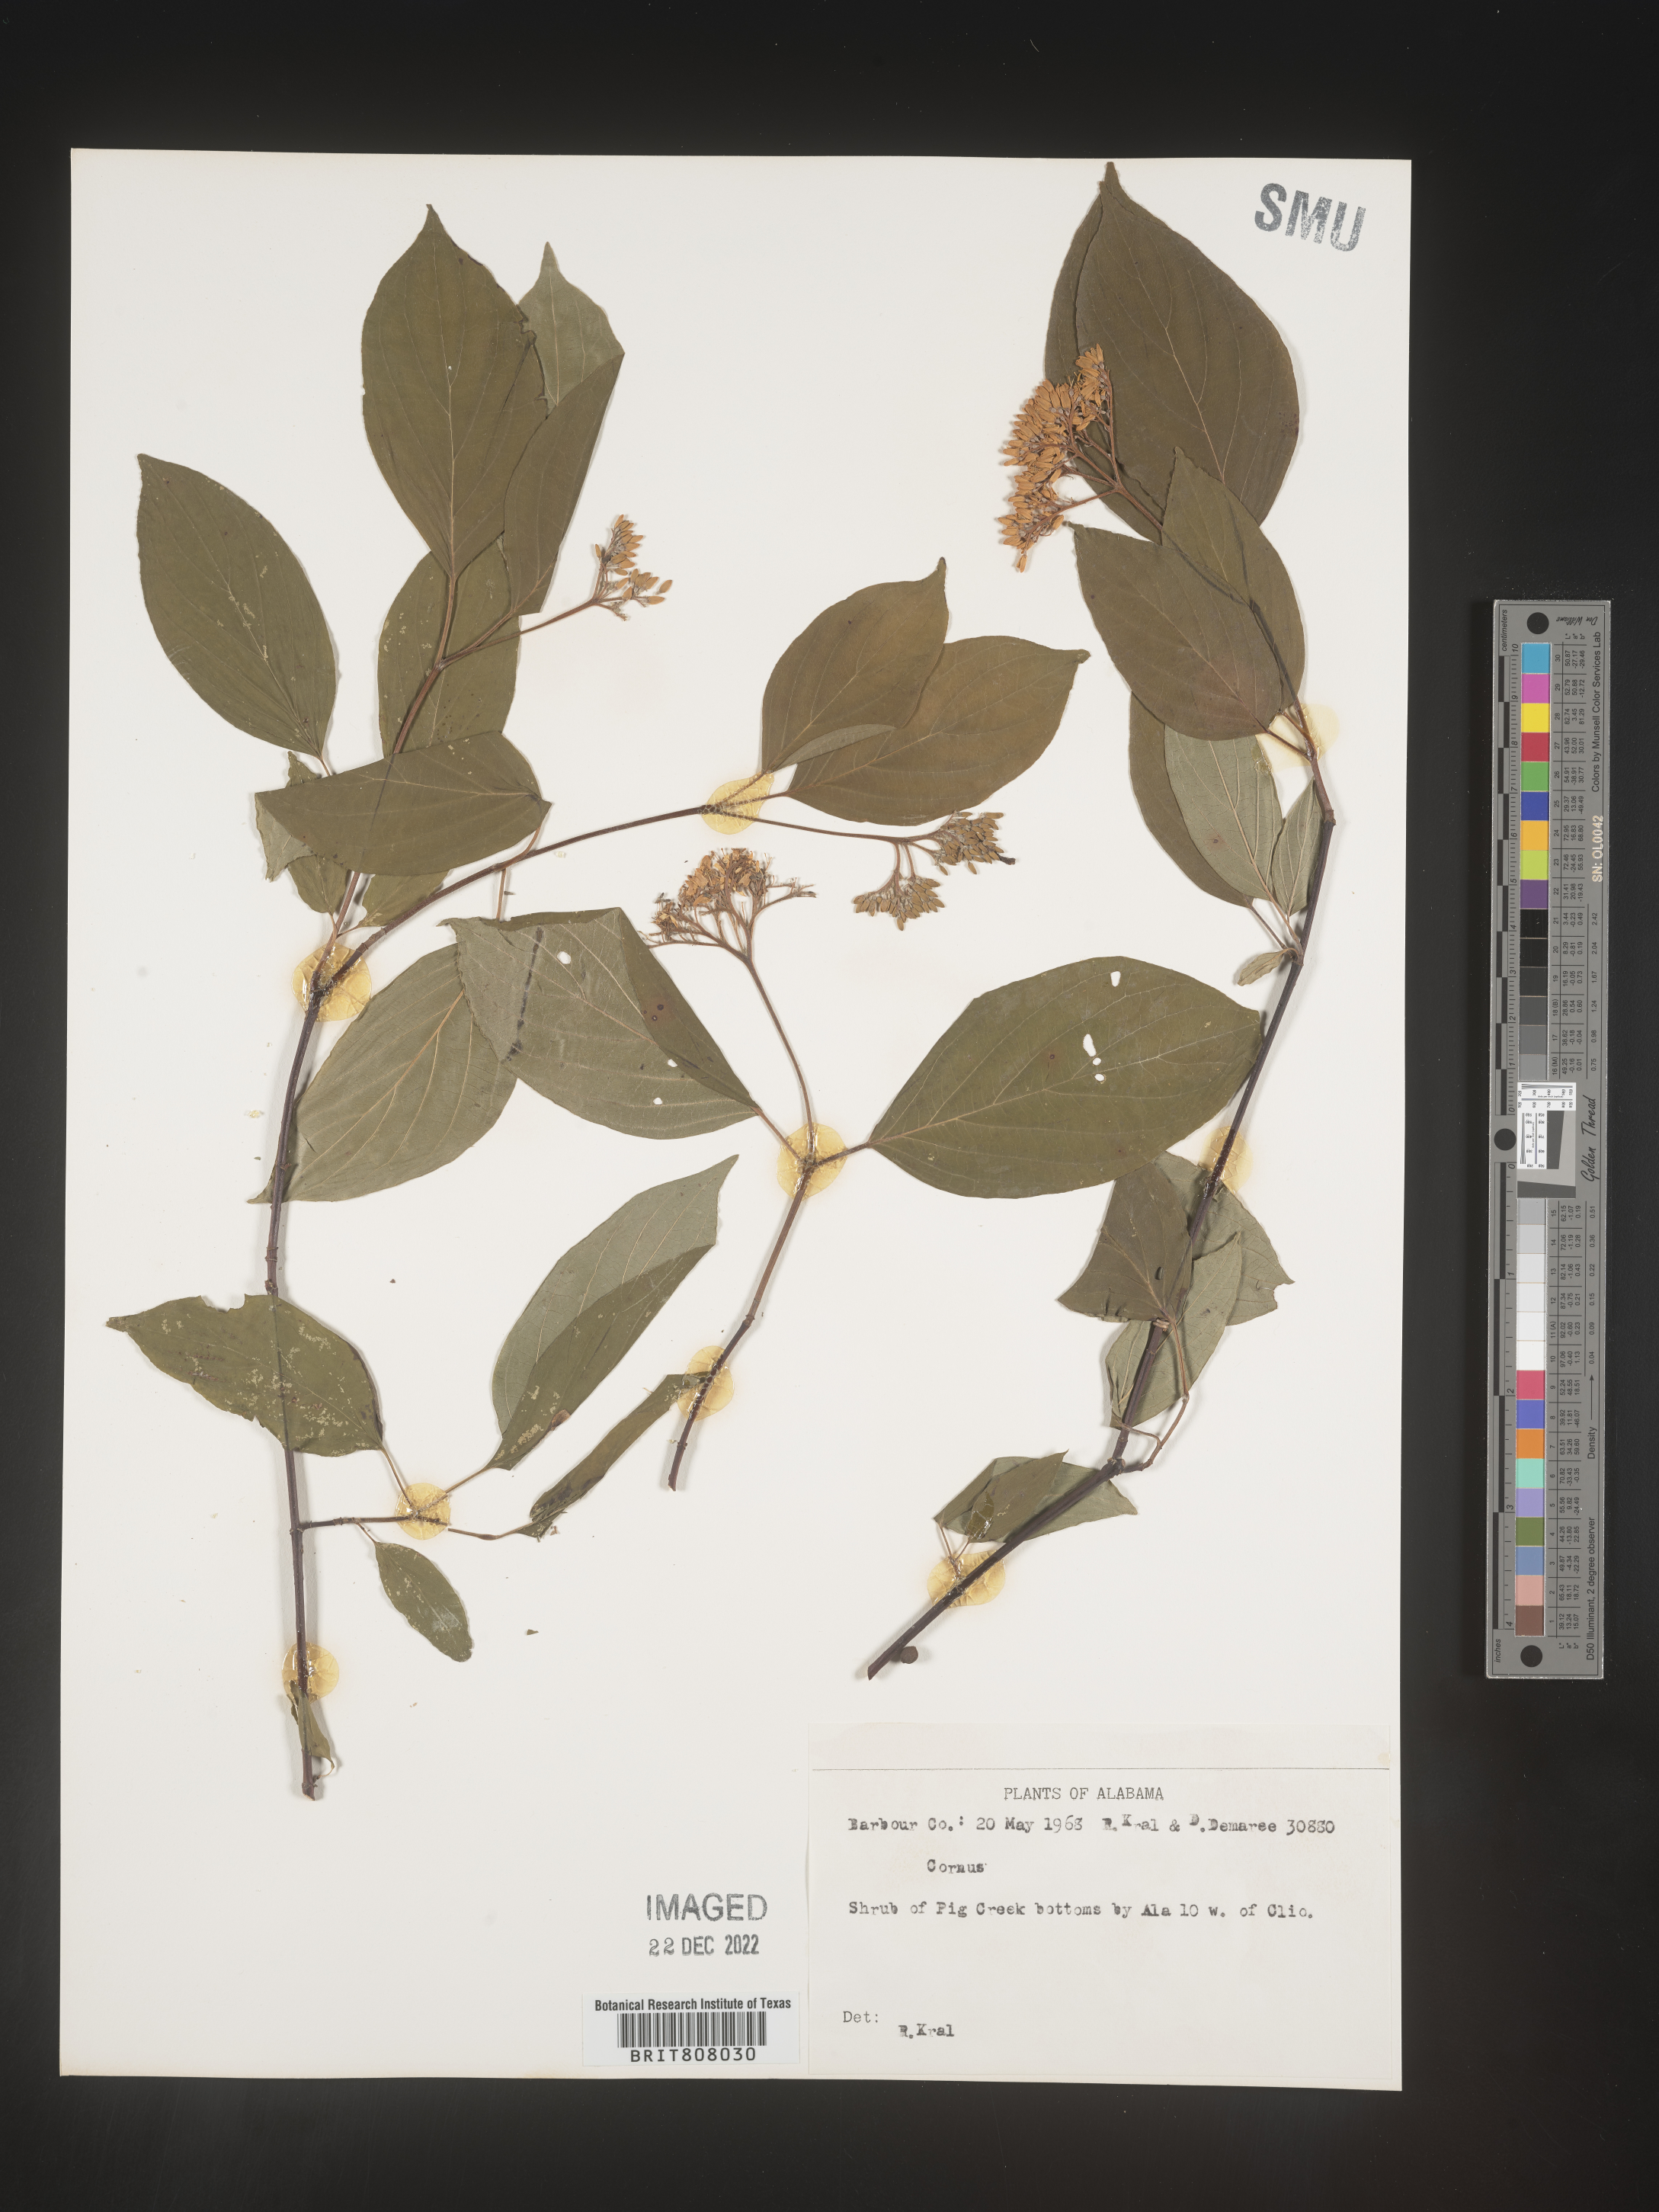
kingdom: Plantae
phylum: Tracheophyta
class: Magnoliopsida
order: Cornales
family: Cornaceae
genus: Cornus
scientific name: Cornus
